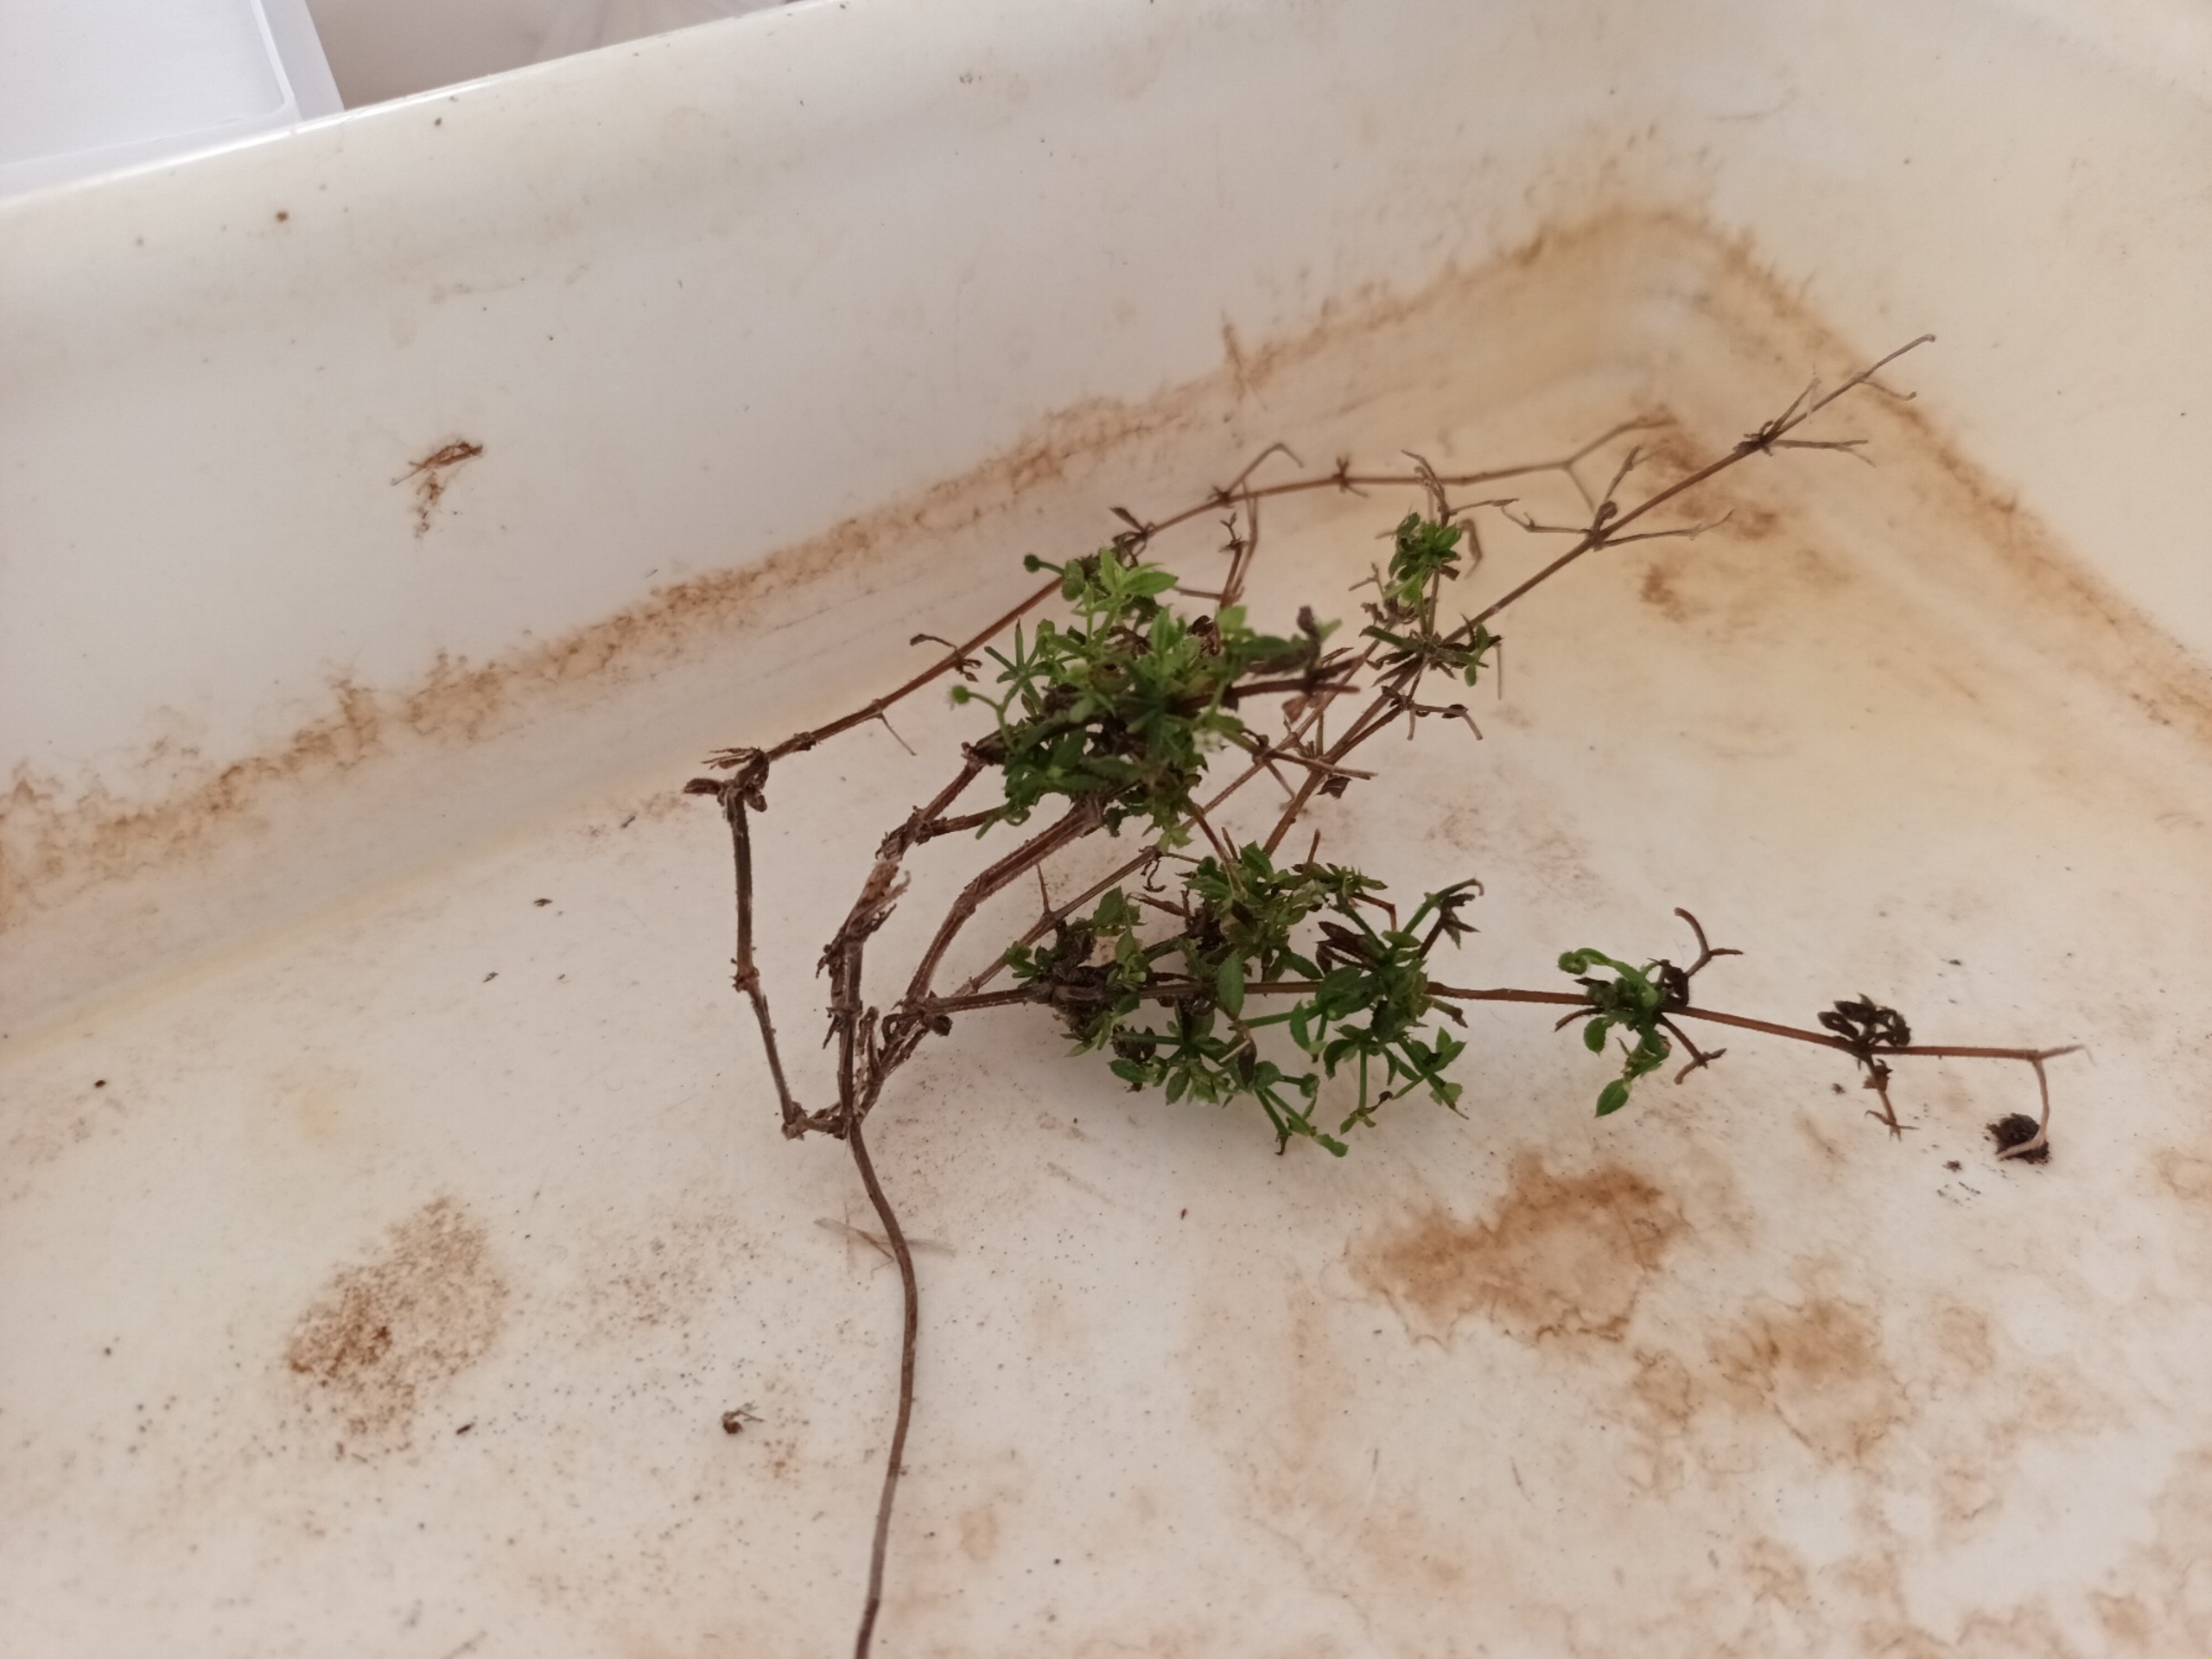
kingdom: Plantae
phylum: Tracheophyta
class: Magnoliopsida
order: Gentianales
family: Rubiaceae
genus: Galium
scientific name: Galium aparine
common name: Burre-snerre
